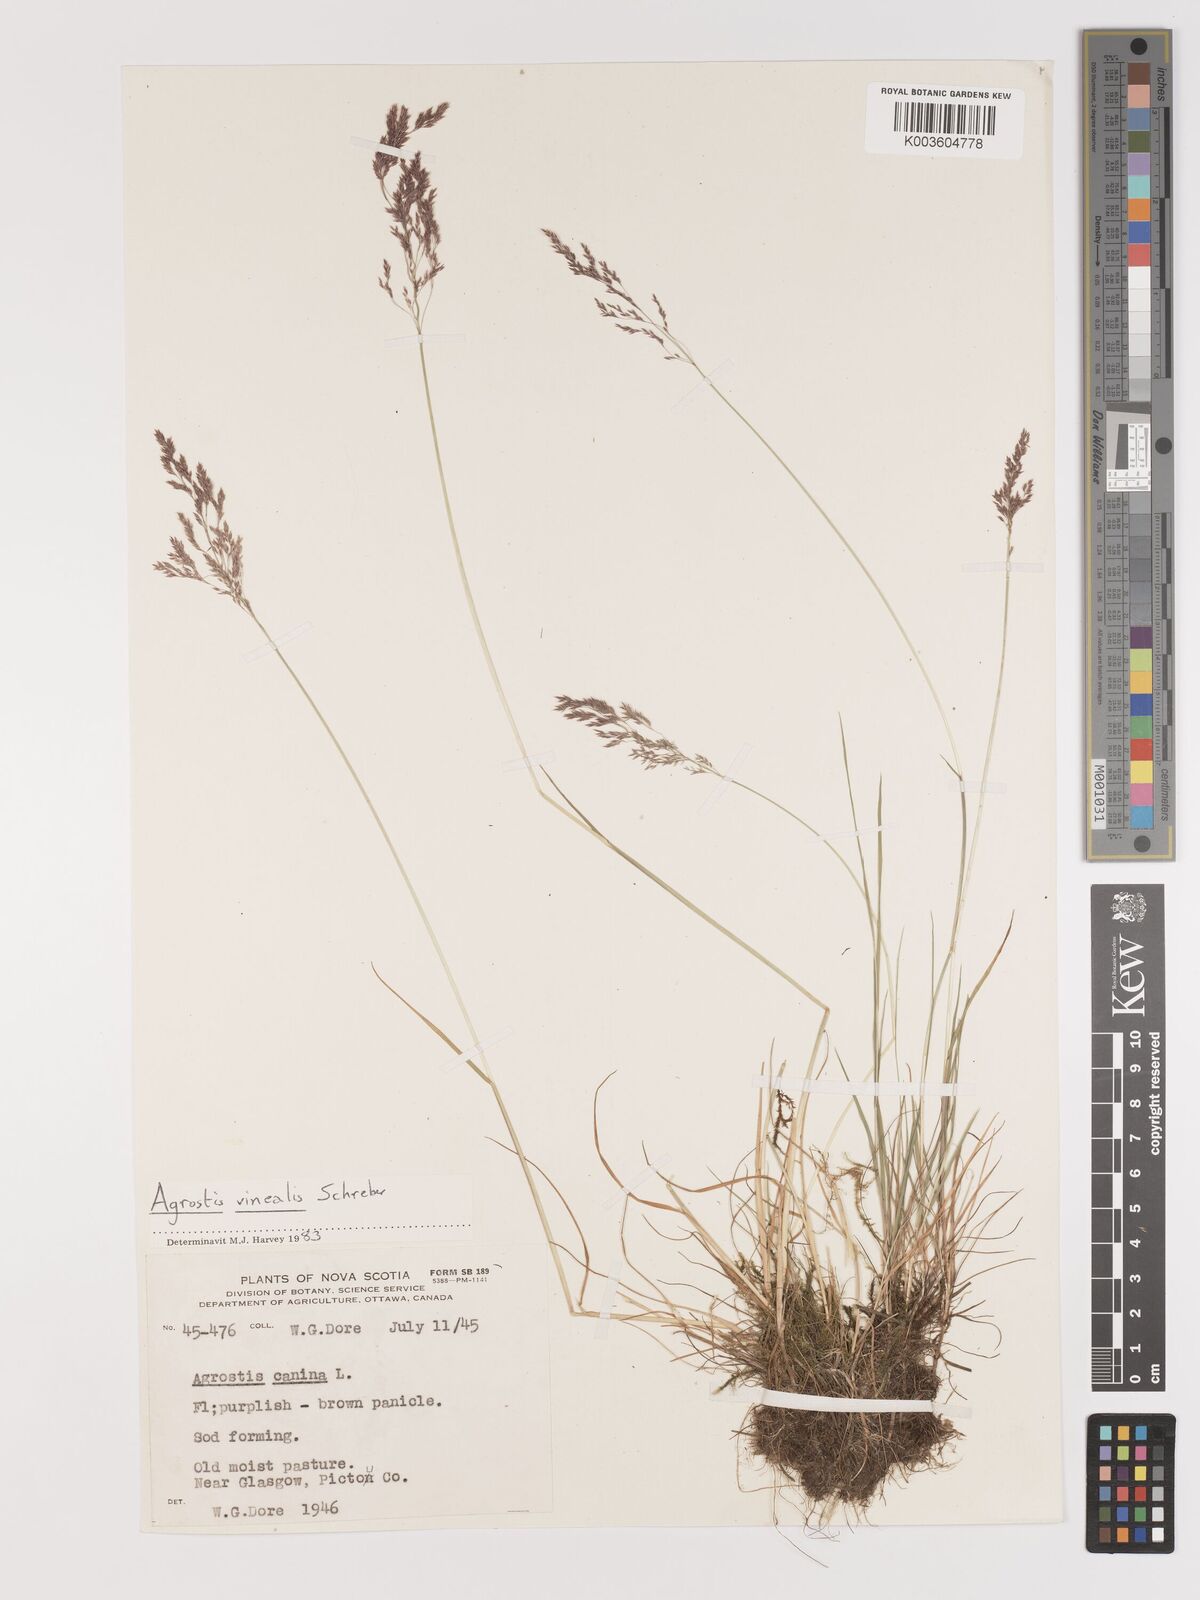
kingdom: Plantae
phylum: Tracheophyta
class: Liliopsida
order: Poales
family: Poaceae
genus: Agrostis
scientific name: Agrostis vinealis
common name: Brown bent
